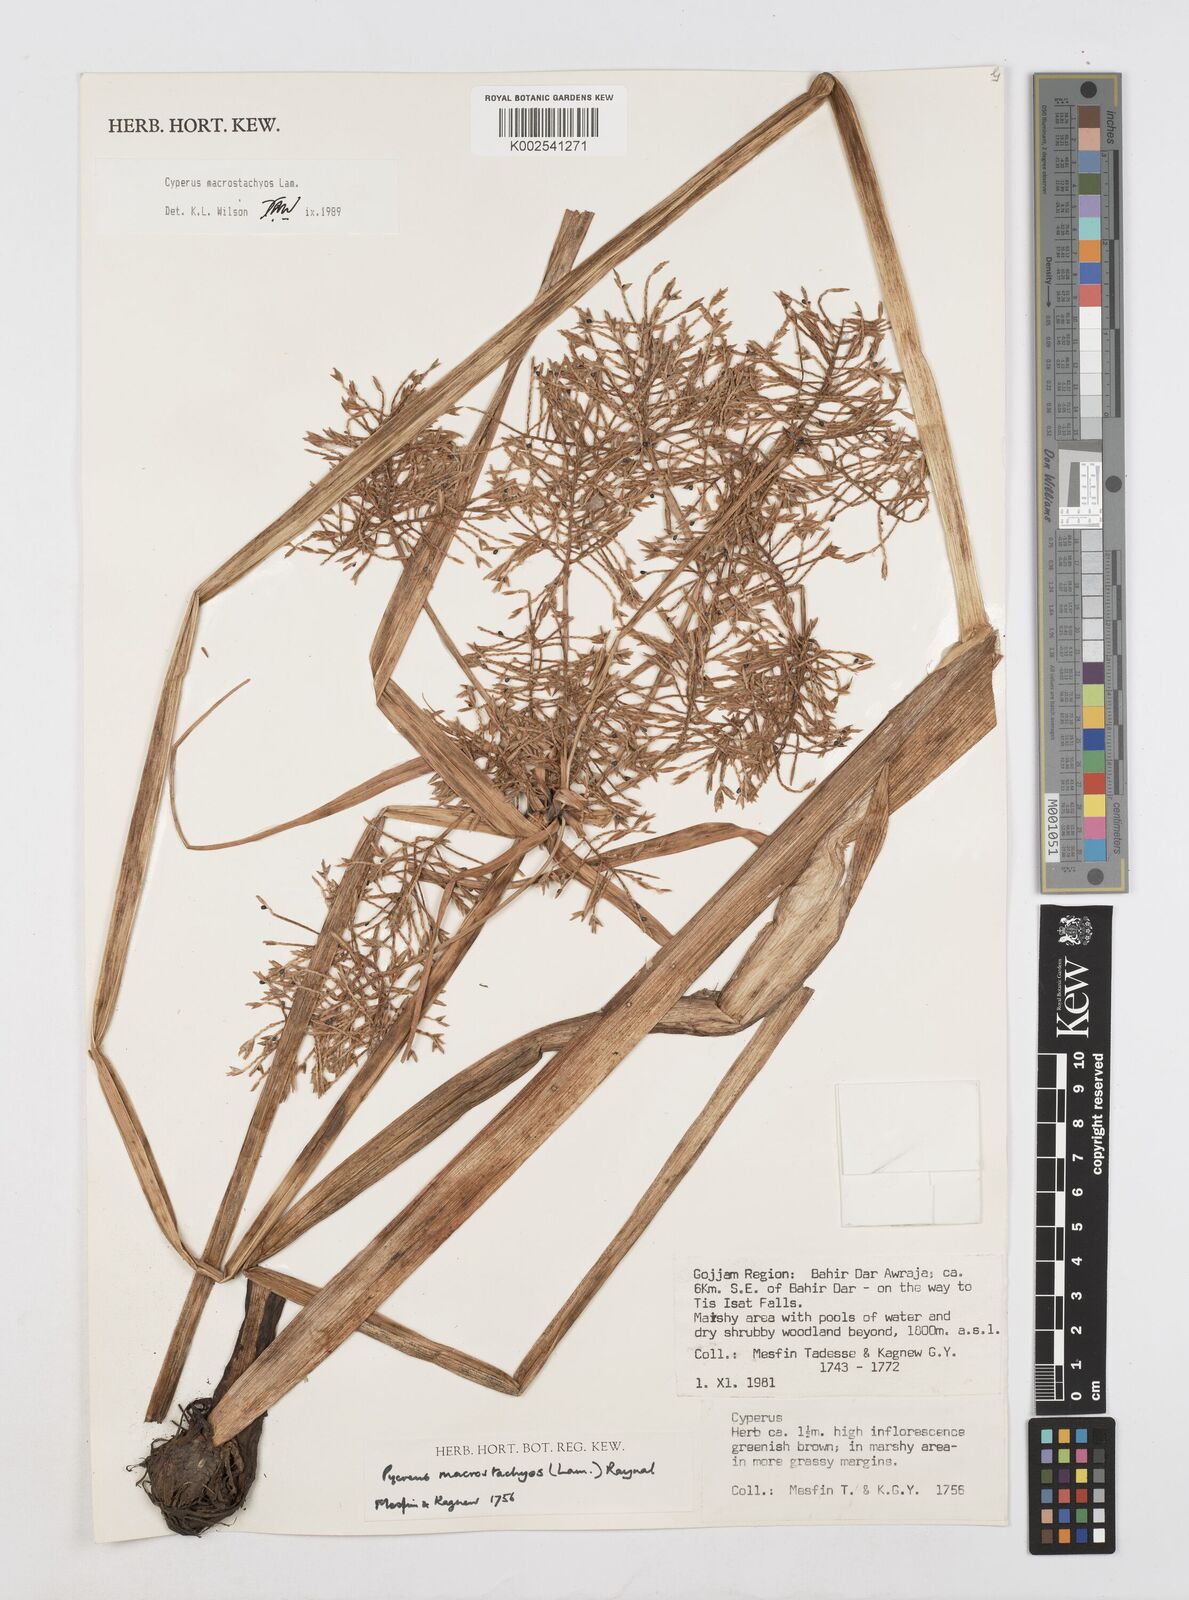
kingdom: Plantae
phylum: Tracheophyta
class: Liliopsida
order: Poales
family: Cyperaceae
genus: Cyperus
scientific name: Cyperus macrostachyos
